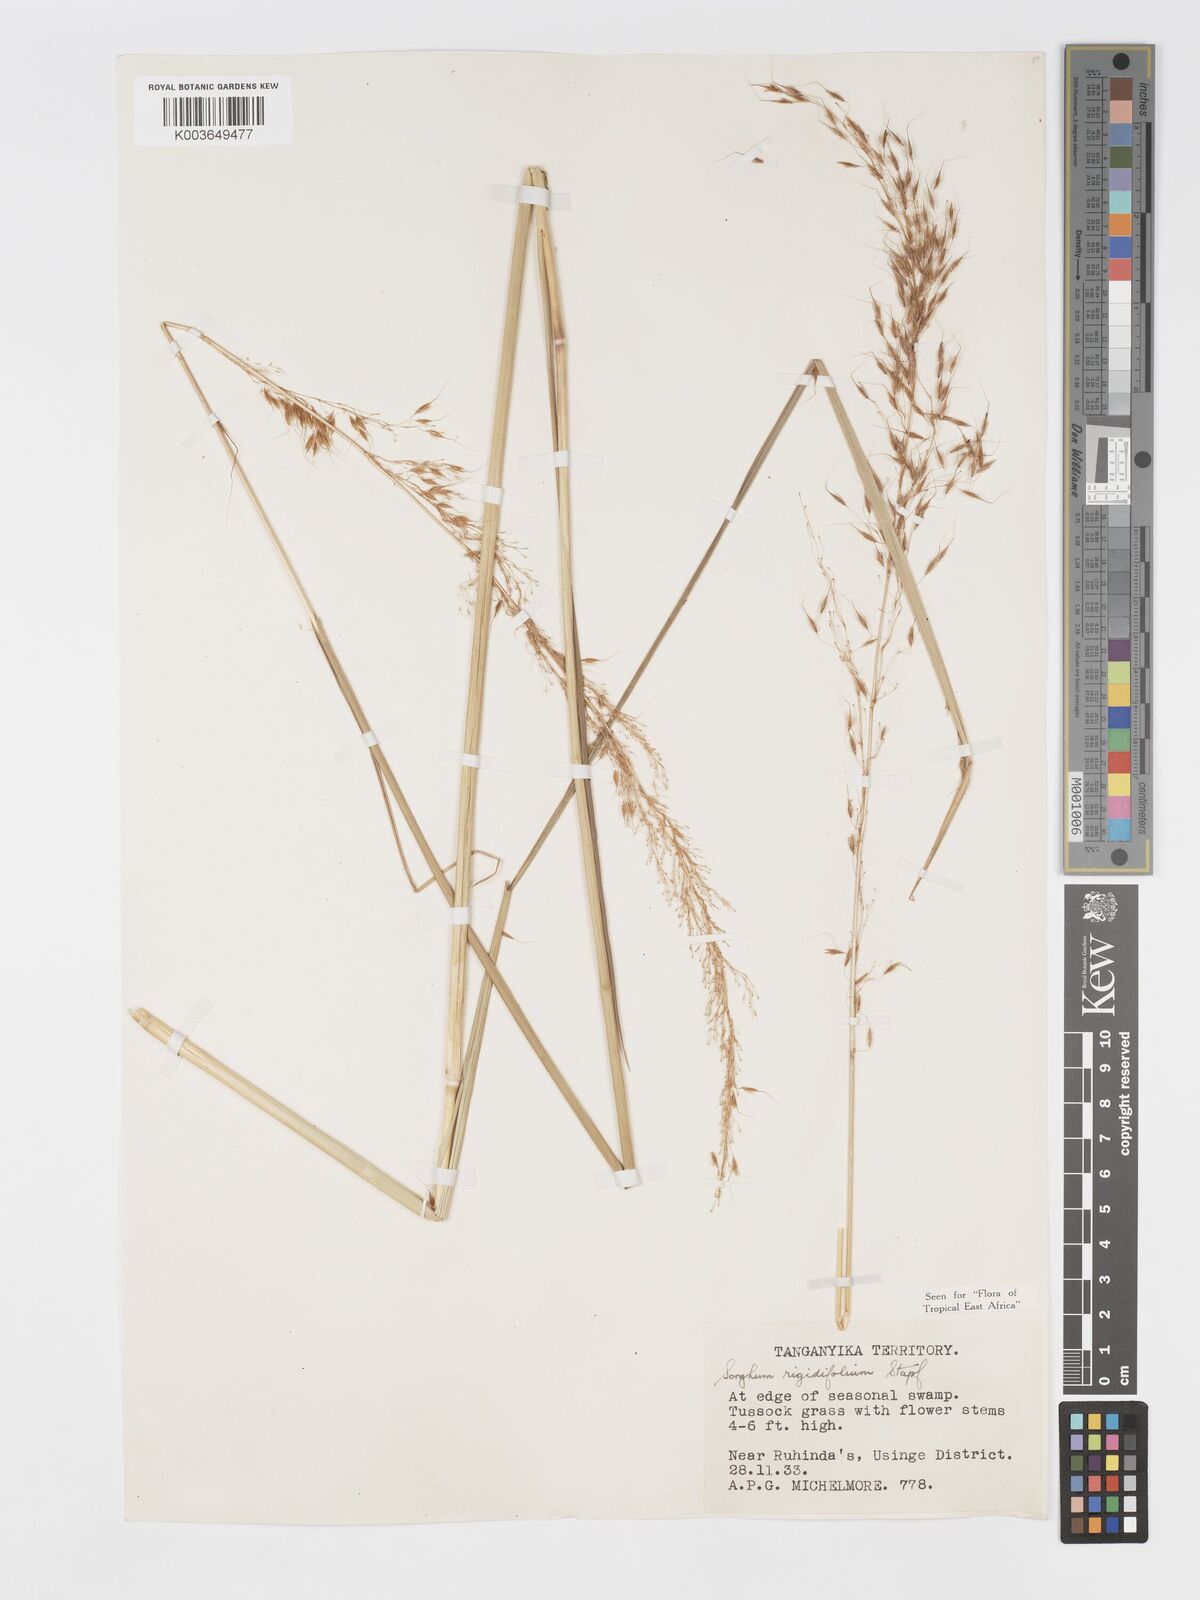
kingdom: Plantae
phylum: Tracheophyta
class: Liliopsida
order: Poales
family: Poaceae
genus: Sorghastrum
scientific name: Sorghastrum stipoides
